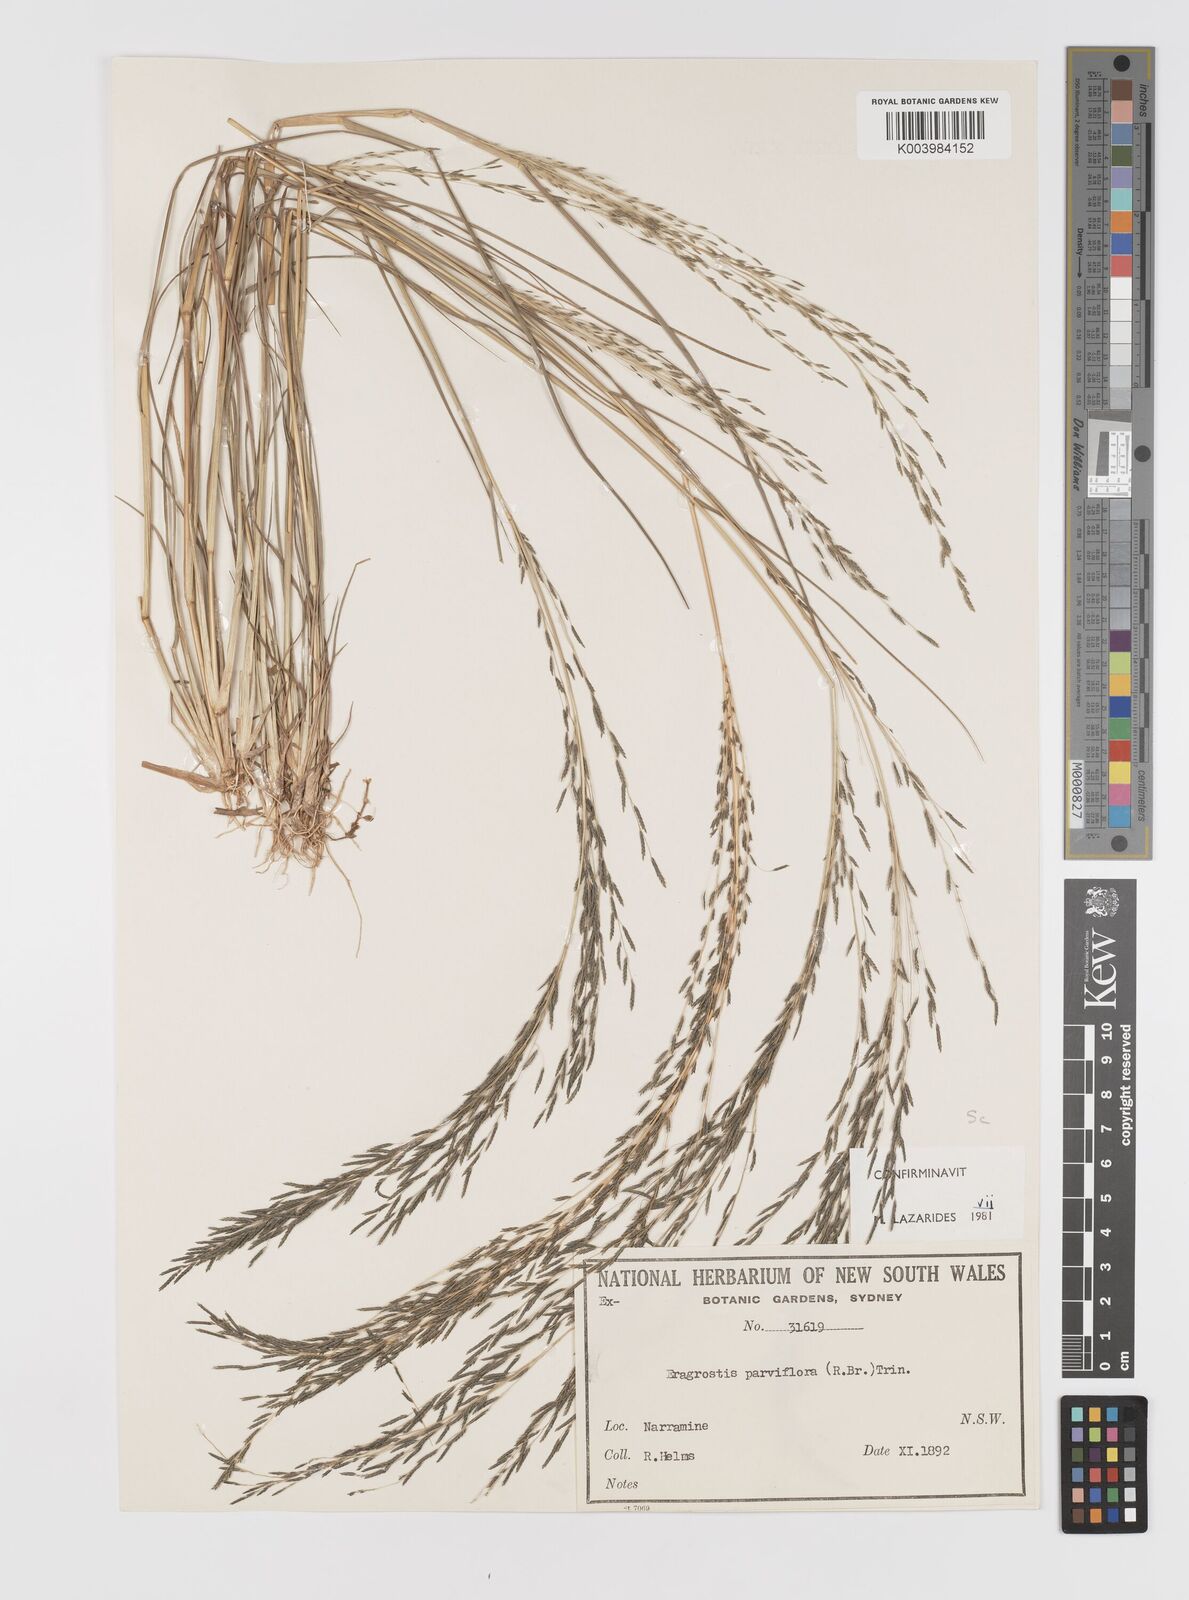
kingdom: Plantae
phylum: Tracheophyta
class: Liliopsida
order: Poales
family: Poaceae
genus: Eragrostis
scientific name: Eragrostis parviflora
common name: Weeping love-grass
